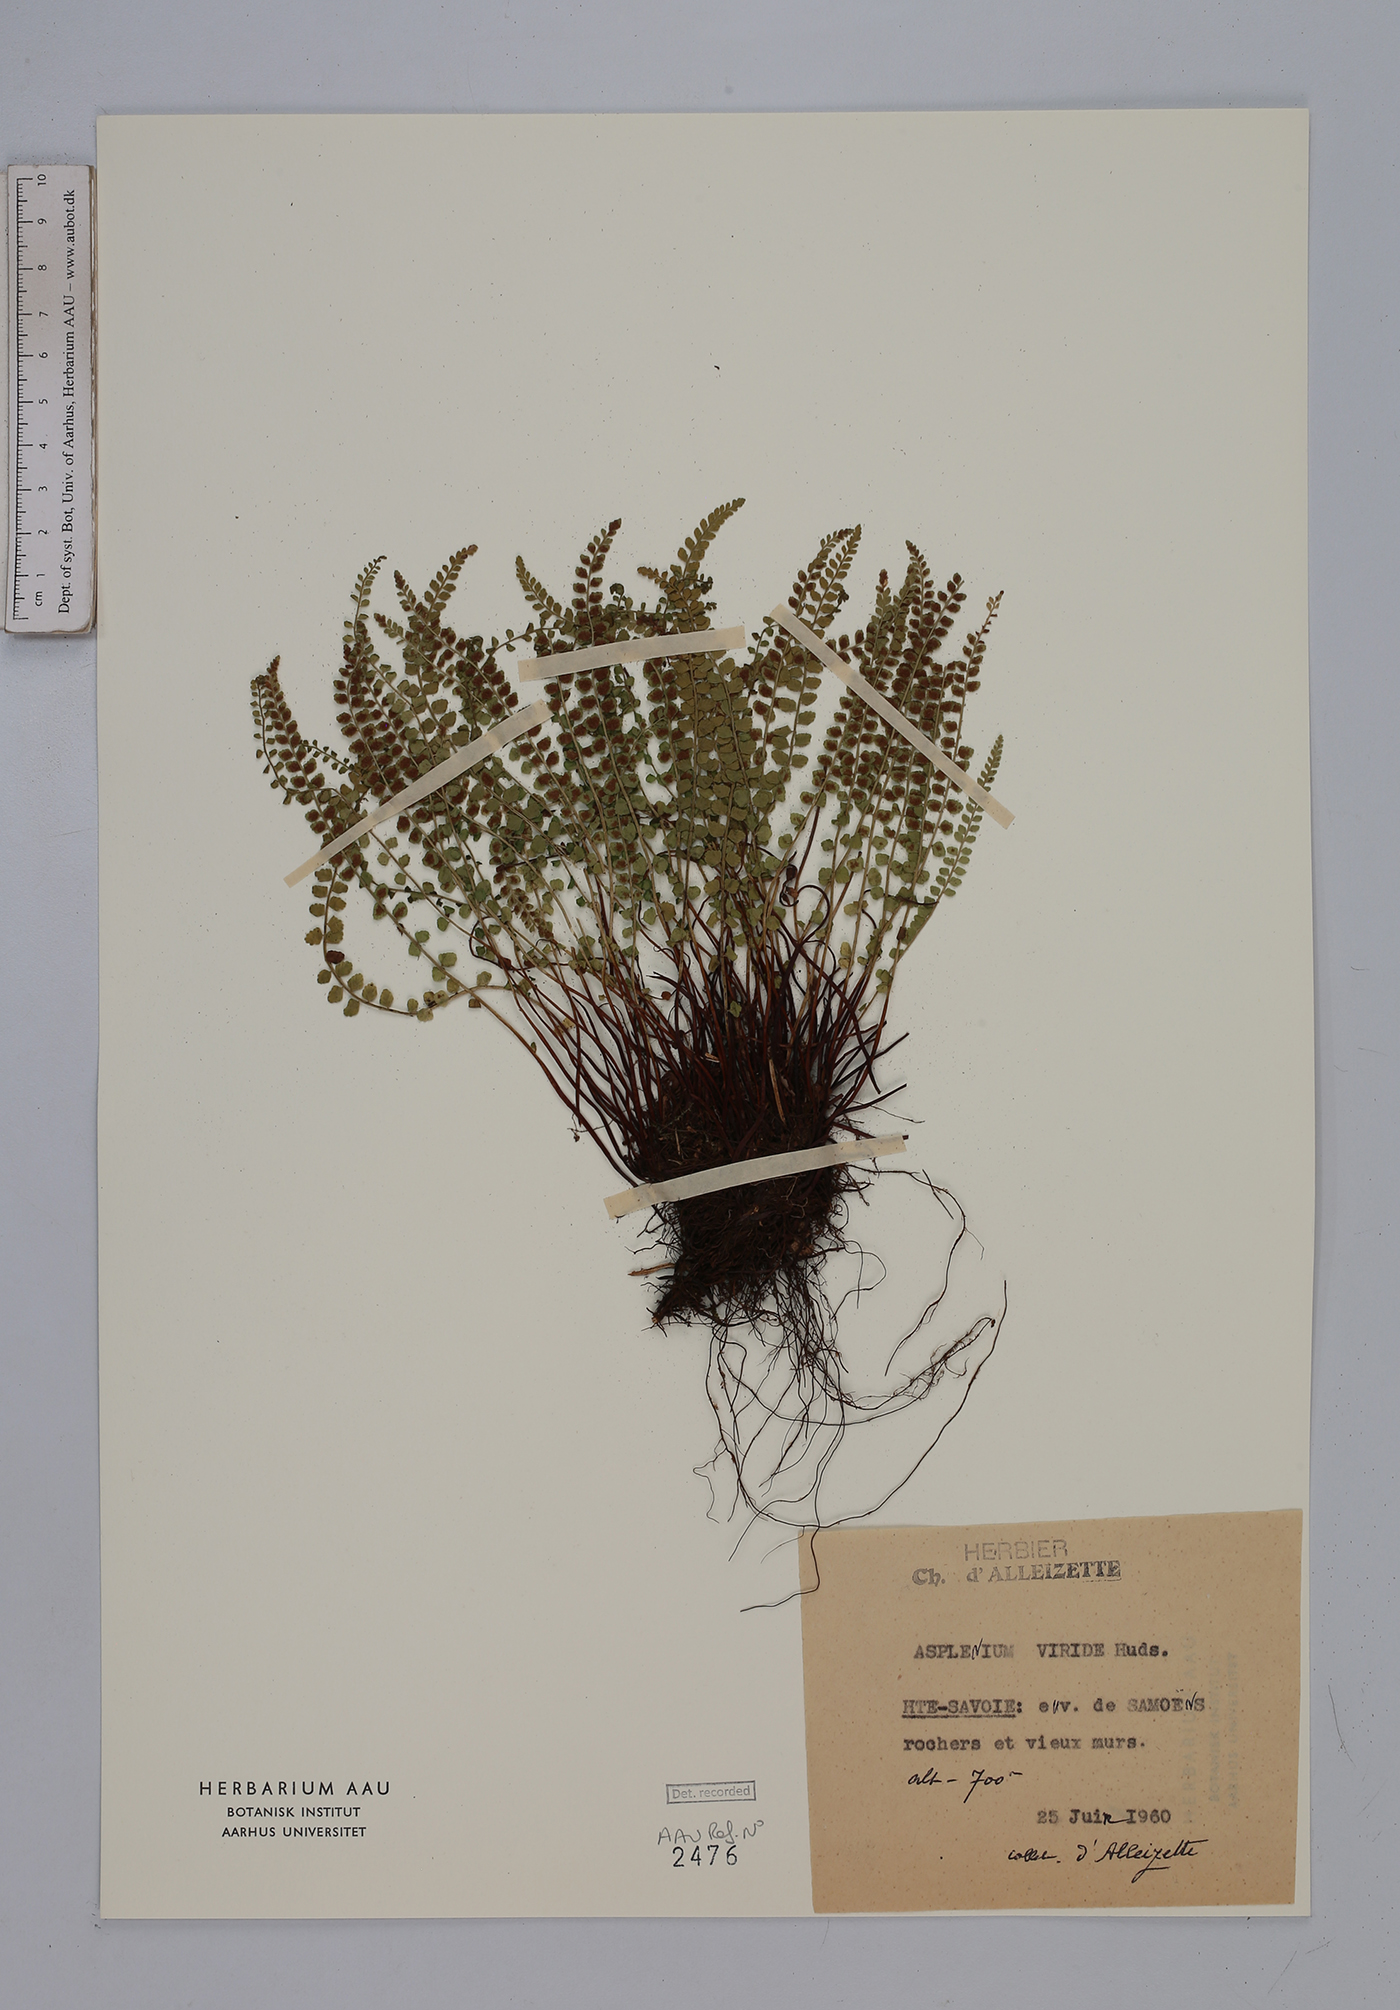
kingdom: Plantae
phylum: Tracheophyta
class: Polypodiopsida
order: Polypodiales
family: Aspleniaceae
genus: Asplenium
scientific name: Asplenium viride
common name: Green spleenwort
